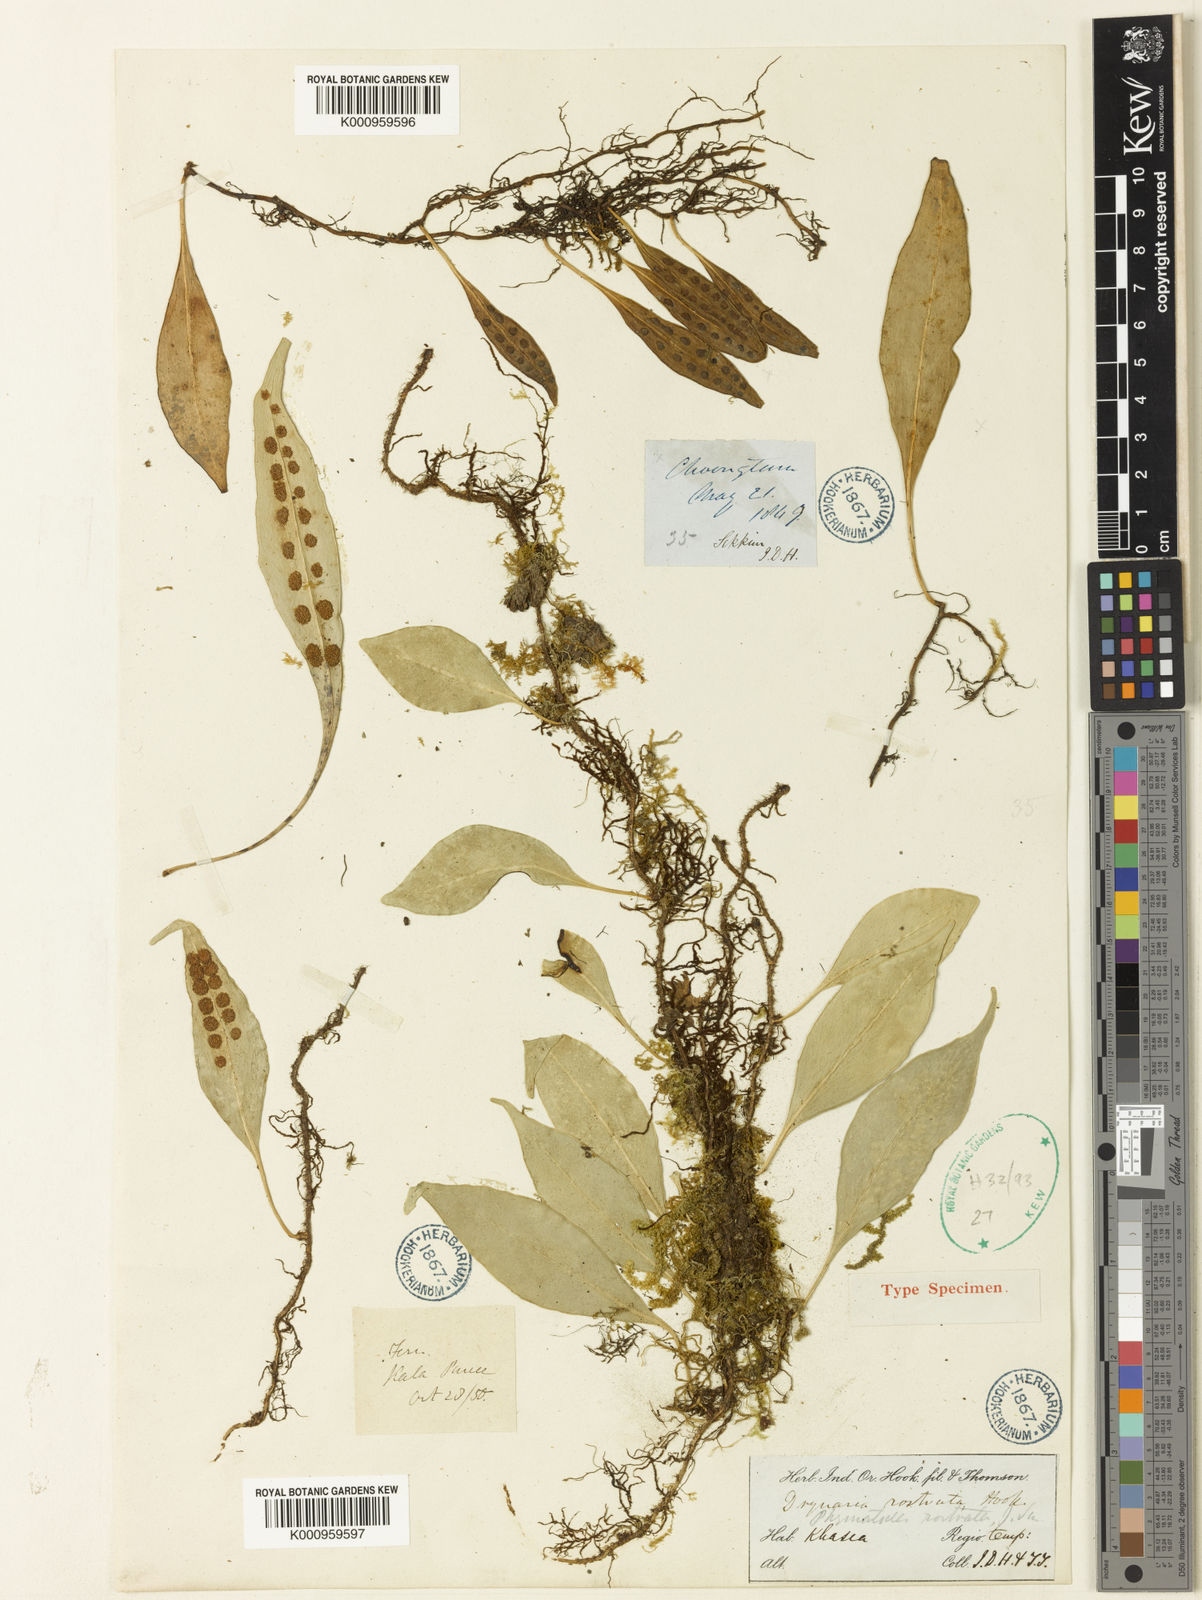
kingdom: Plantae
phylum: Tracheophyta
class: Polypodiopsida
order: Polypodiales
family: Polypodiaceae
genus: Lepisorus
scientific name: Lepisorus rostratus
